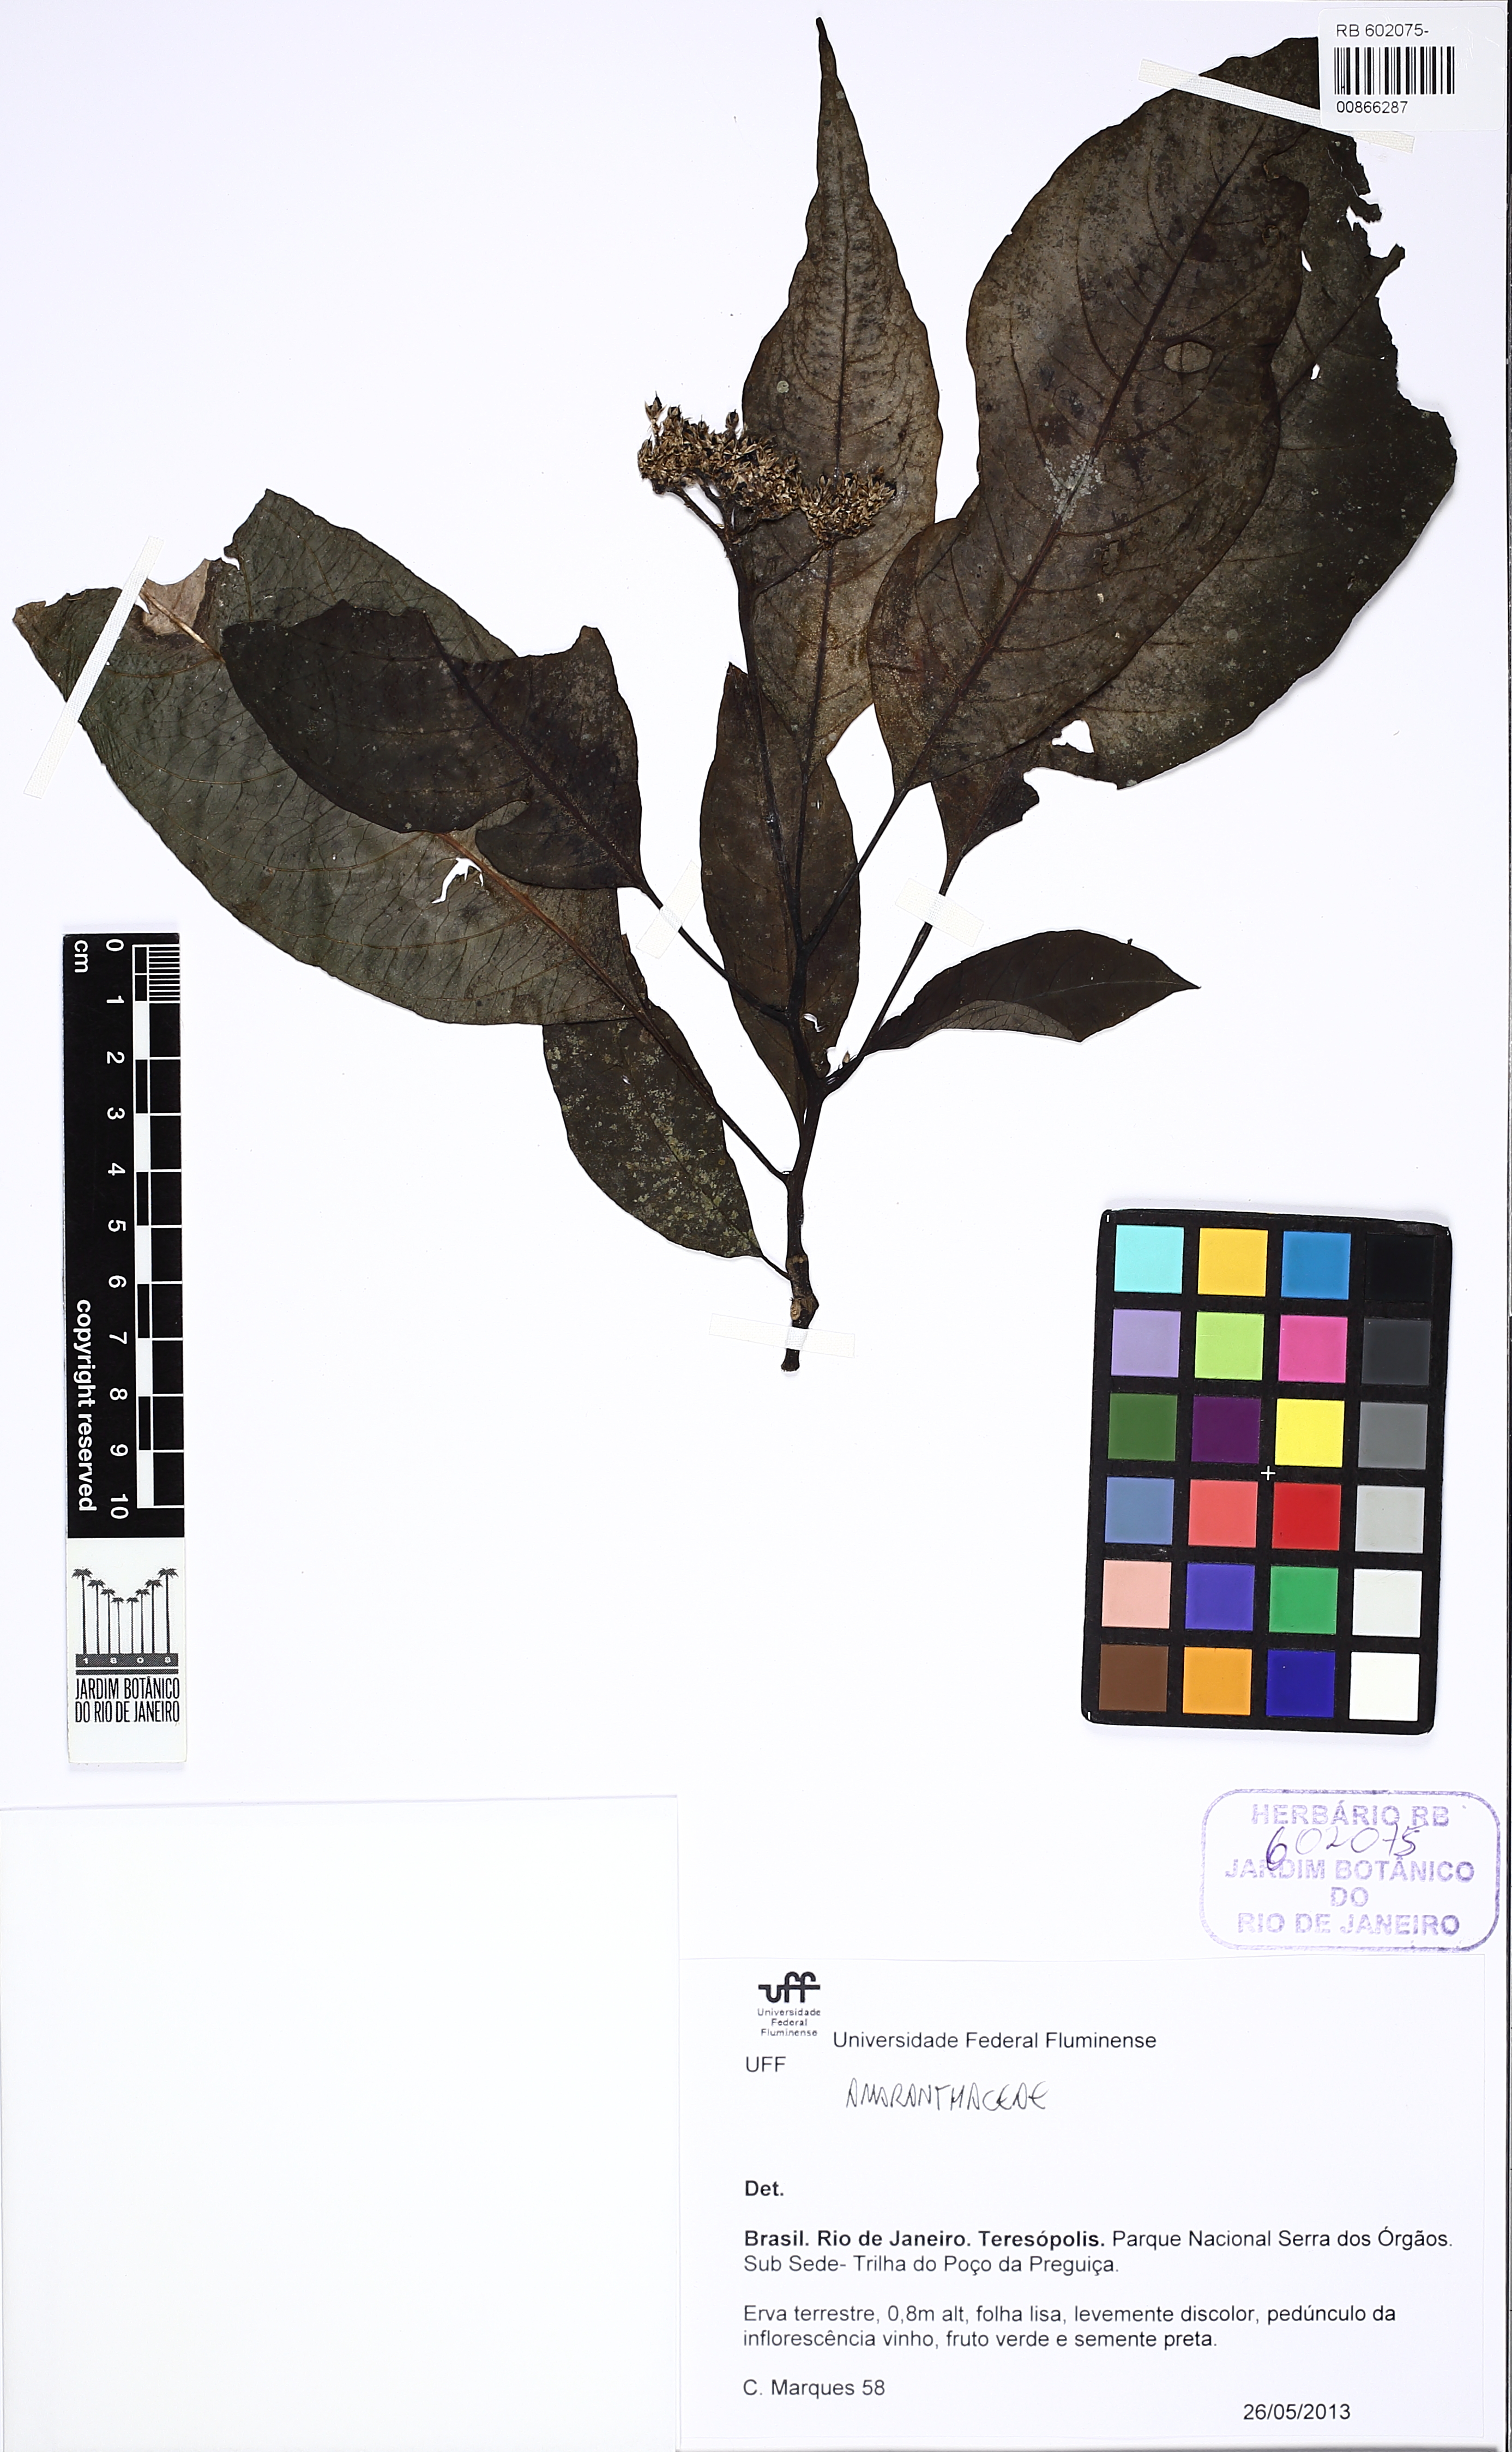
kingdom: Plantae
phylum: Tracheophyta
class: Magnoliopsida
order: Caryophyllales
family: Amaranthaceae
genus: Celosia
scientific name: Celosia corymbifera
